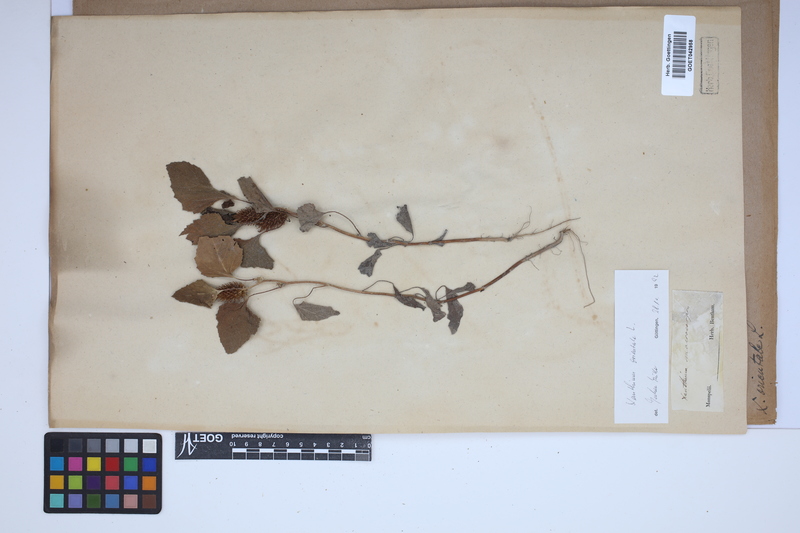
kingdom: Plantae
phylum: Tracheophyta
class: Magnoliopsida
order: Asterales
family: Asteraceae
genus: Xanthium
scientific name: Xanthium orientale
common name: Californian burr
